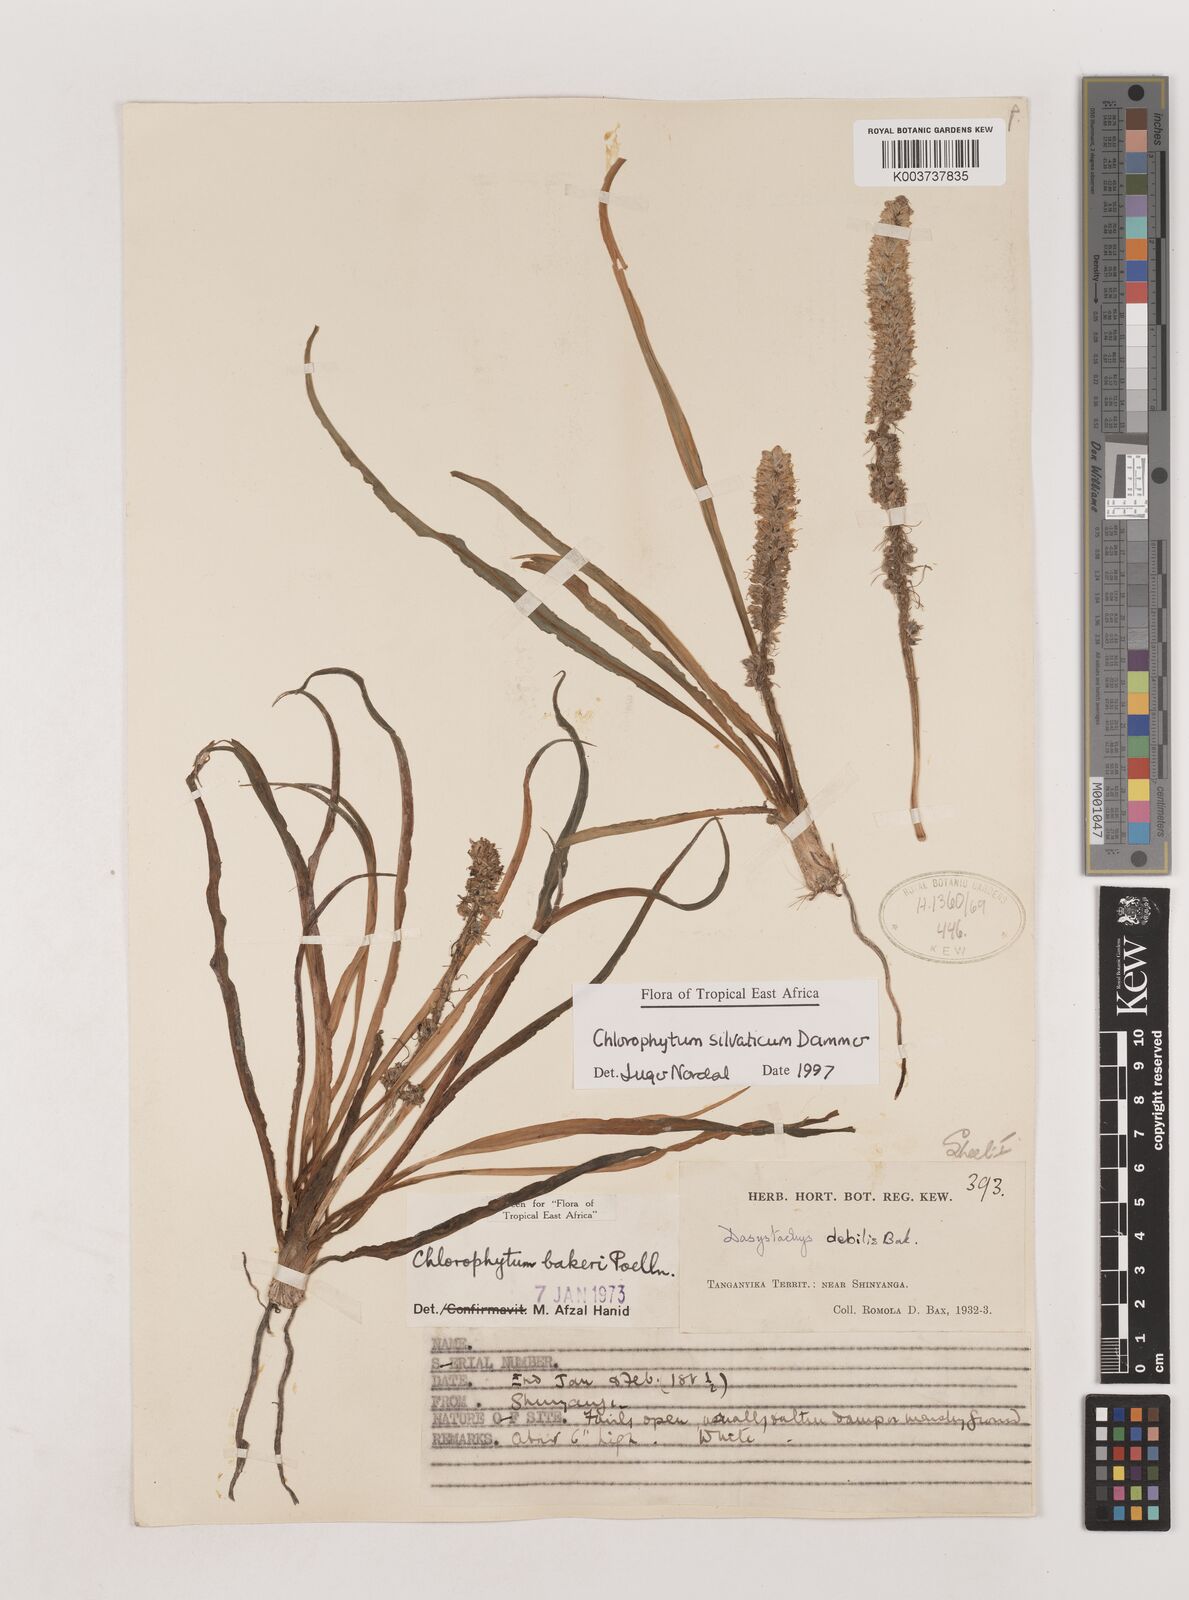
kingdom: Plantae
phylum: Tracheophyta
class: Liliopsida
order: Asparagales
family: Asparagaceae
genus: Chlorophytum
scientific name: Chlorophytum africanum
